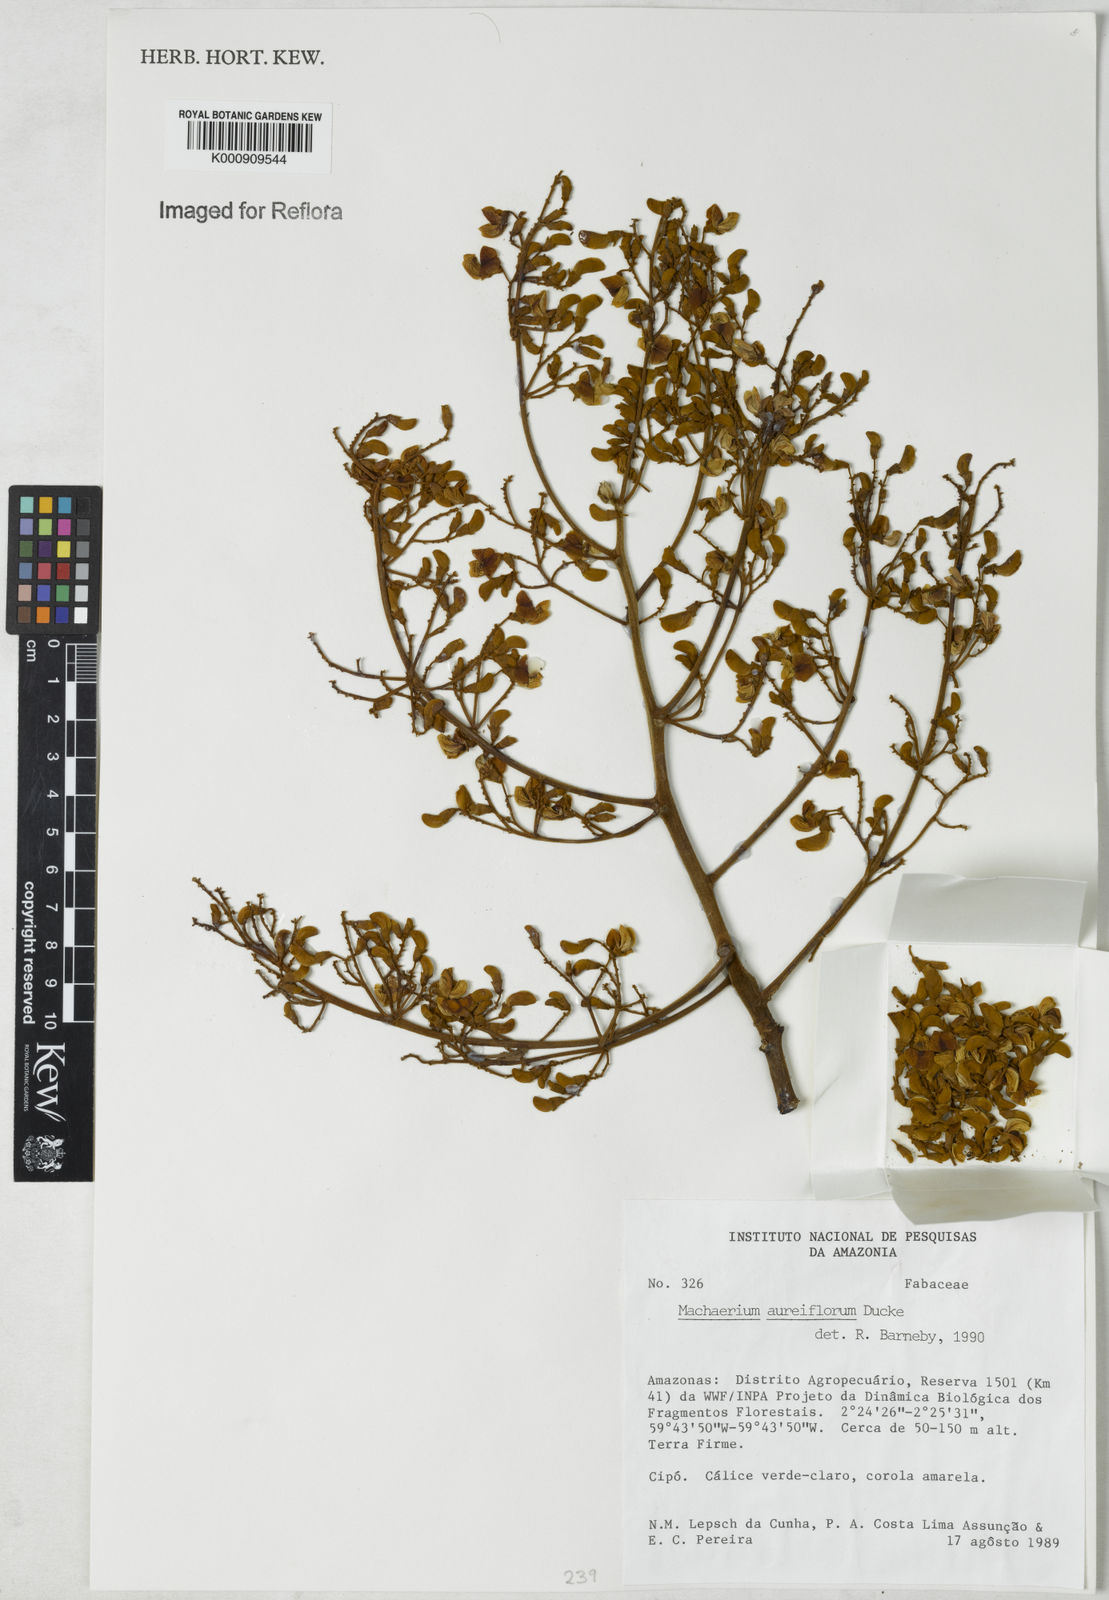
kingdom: Plantae
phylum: Tracheophyta
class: Magnoliopsida
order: Fabales
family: Fabaceae
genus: Machaerium
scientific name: Machaerium aureiflorum
